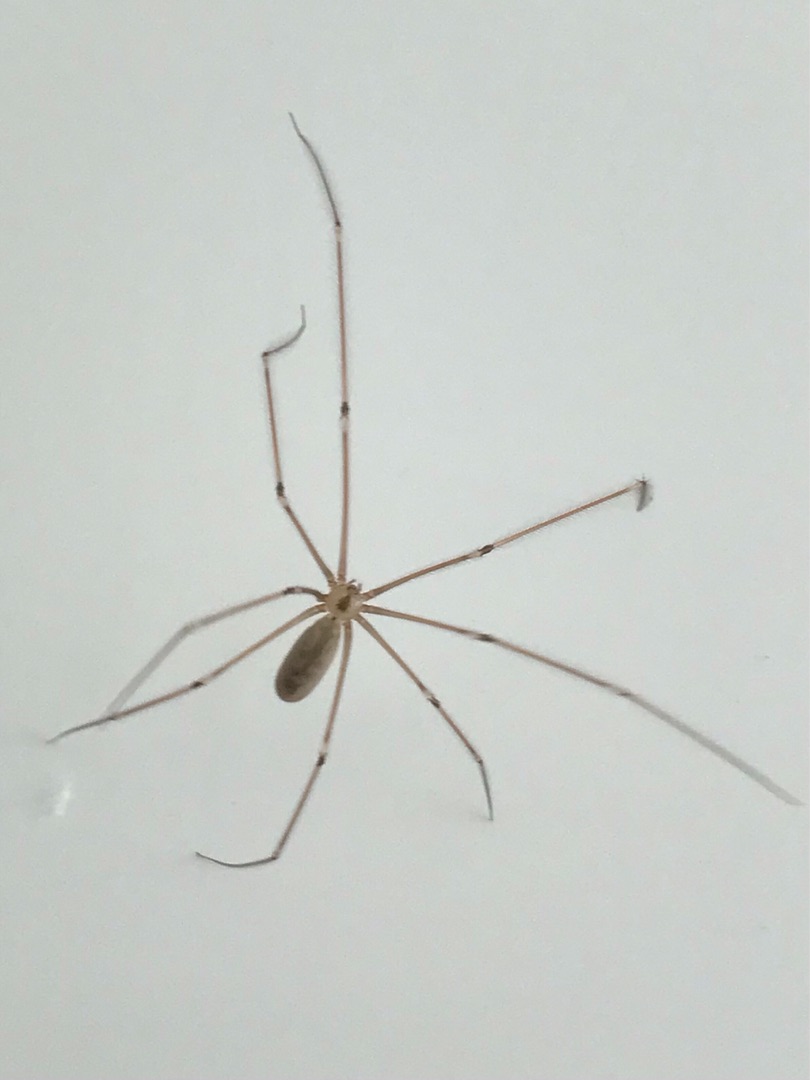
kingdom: Animalia
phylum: Arthropoda
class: Arachnida
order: Araneae
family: Pholcidae
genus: Pholcus
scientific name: Pholcus phalangioides
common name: Mejeredderkop
